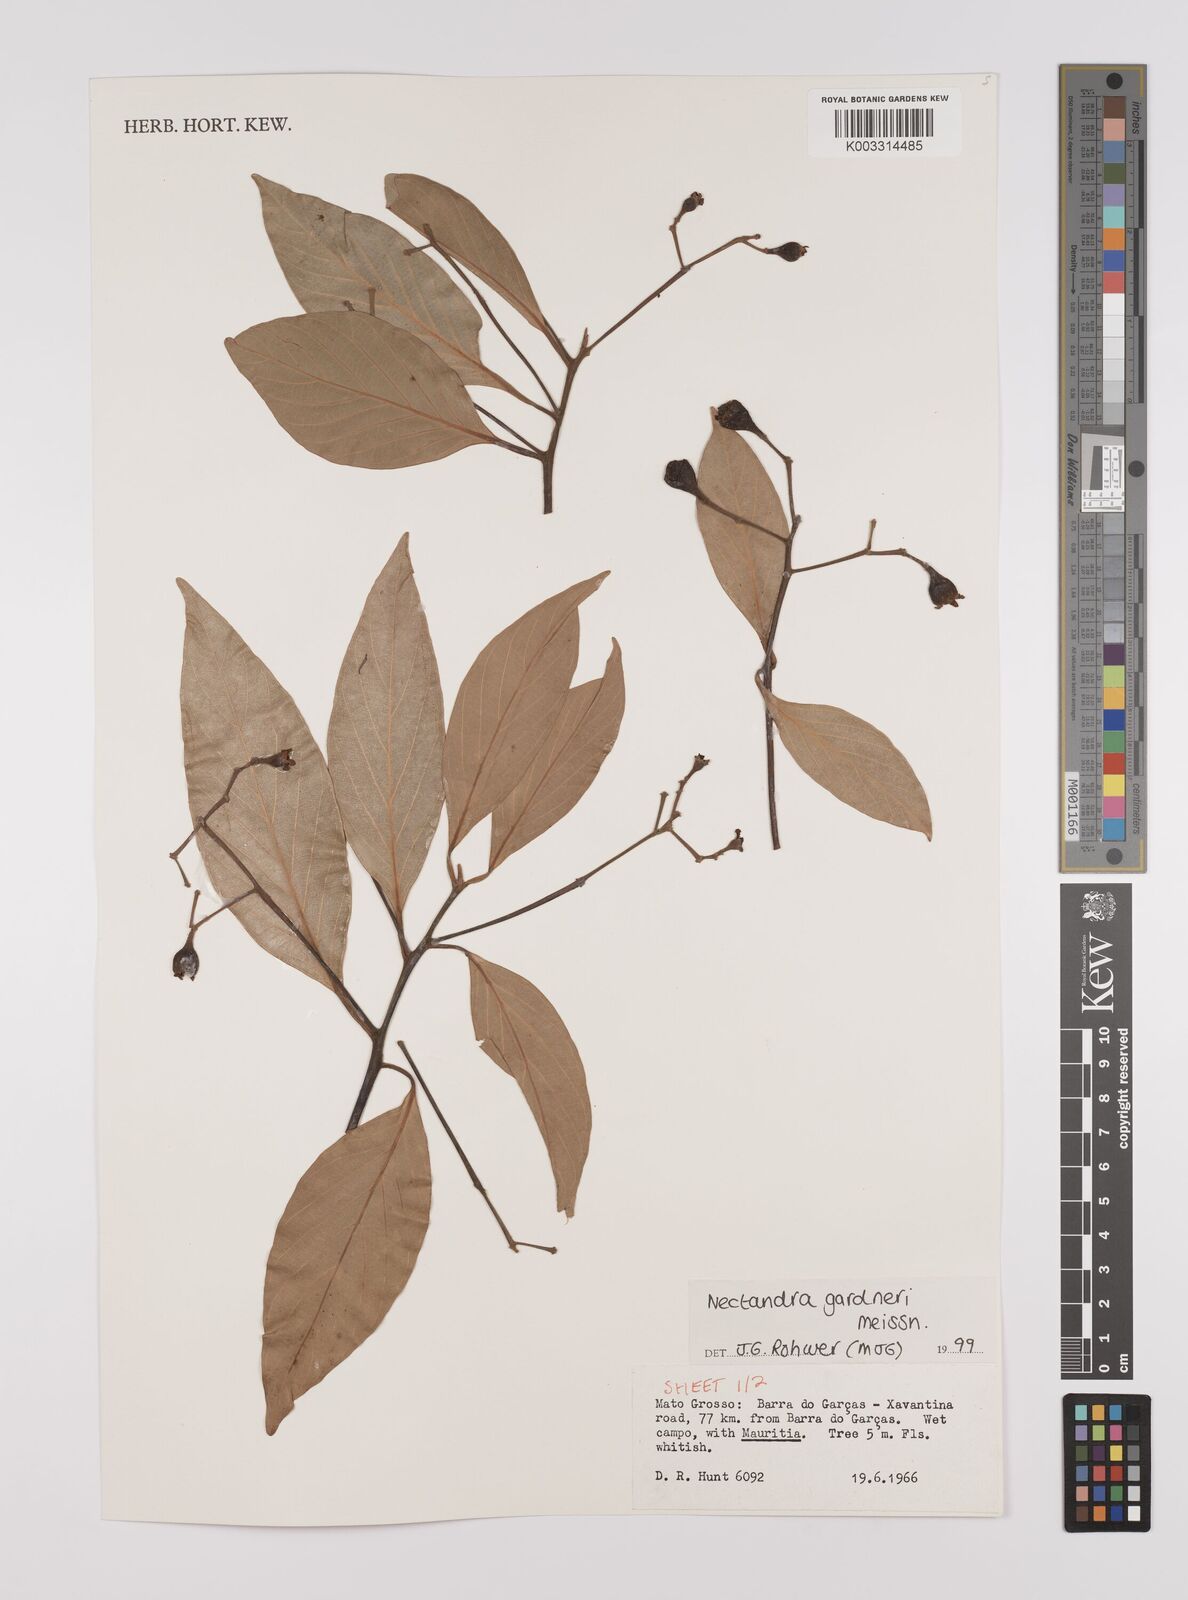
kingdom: Plantae
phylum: Tracheophyta
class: Magnoliopsida
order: Laurales
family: Lauraceae
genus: Nectandra
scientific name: Nectandra gardneri
